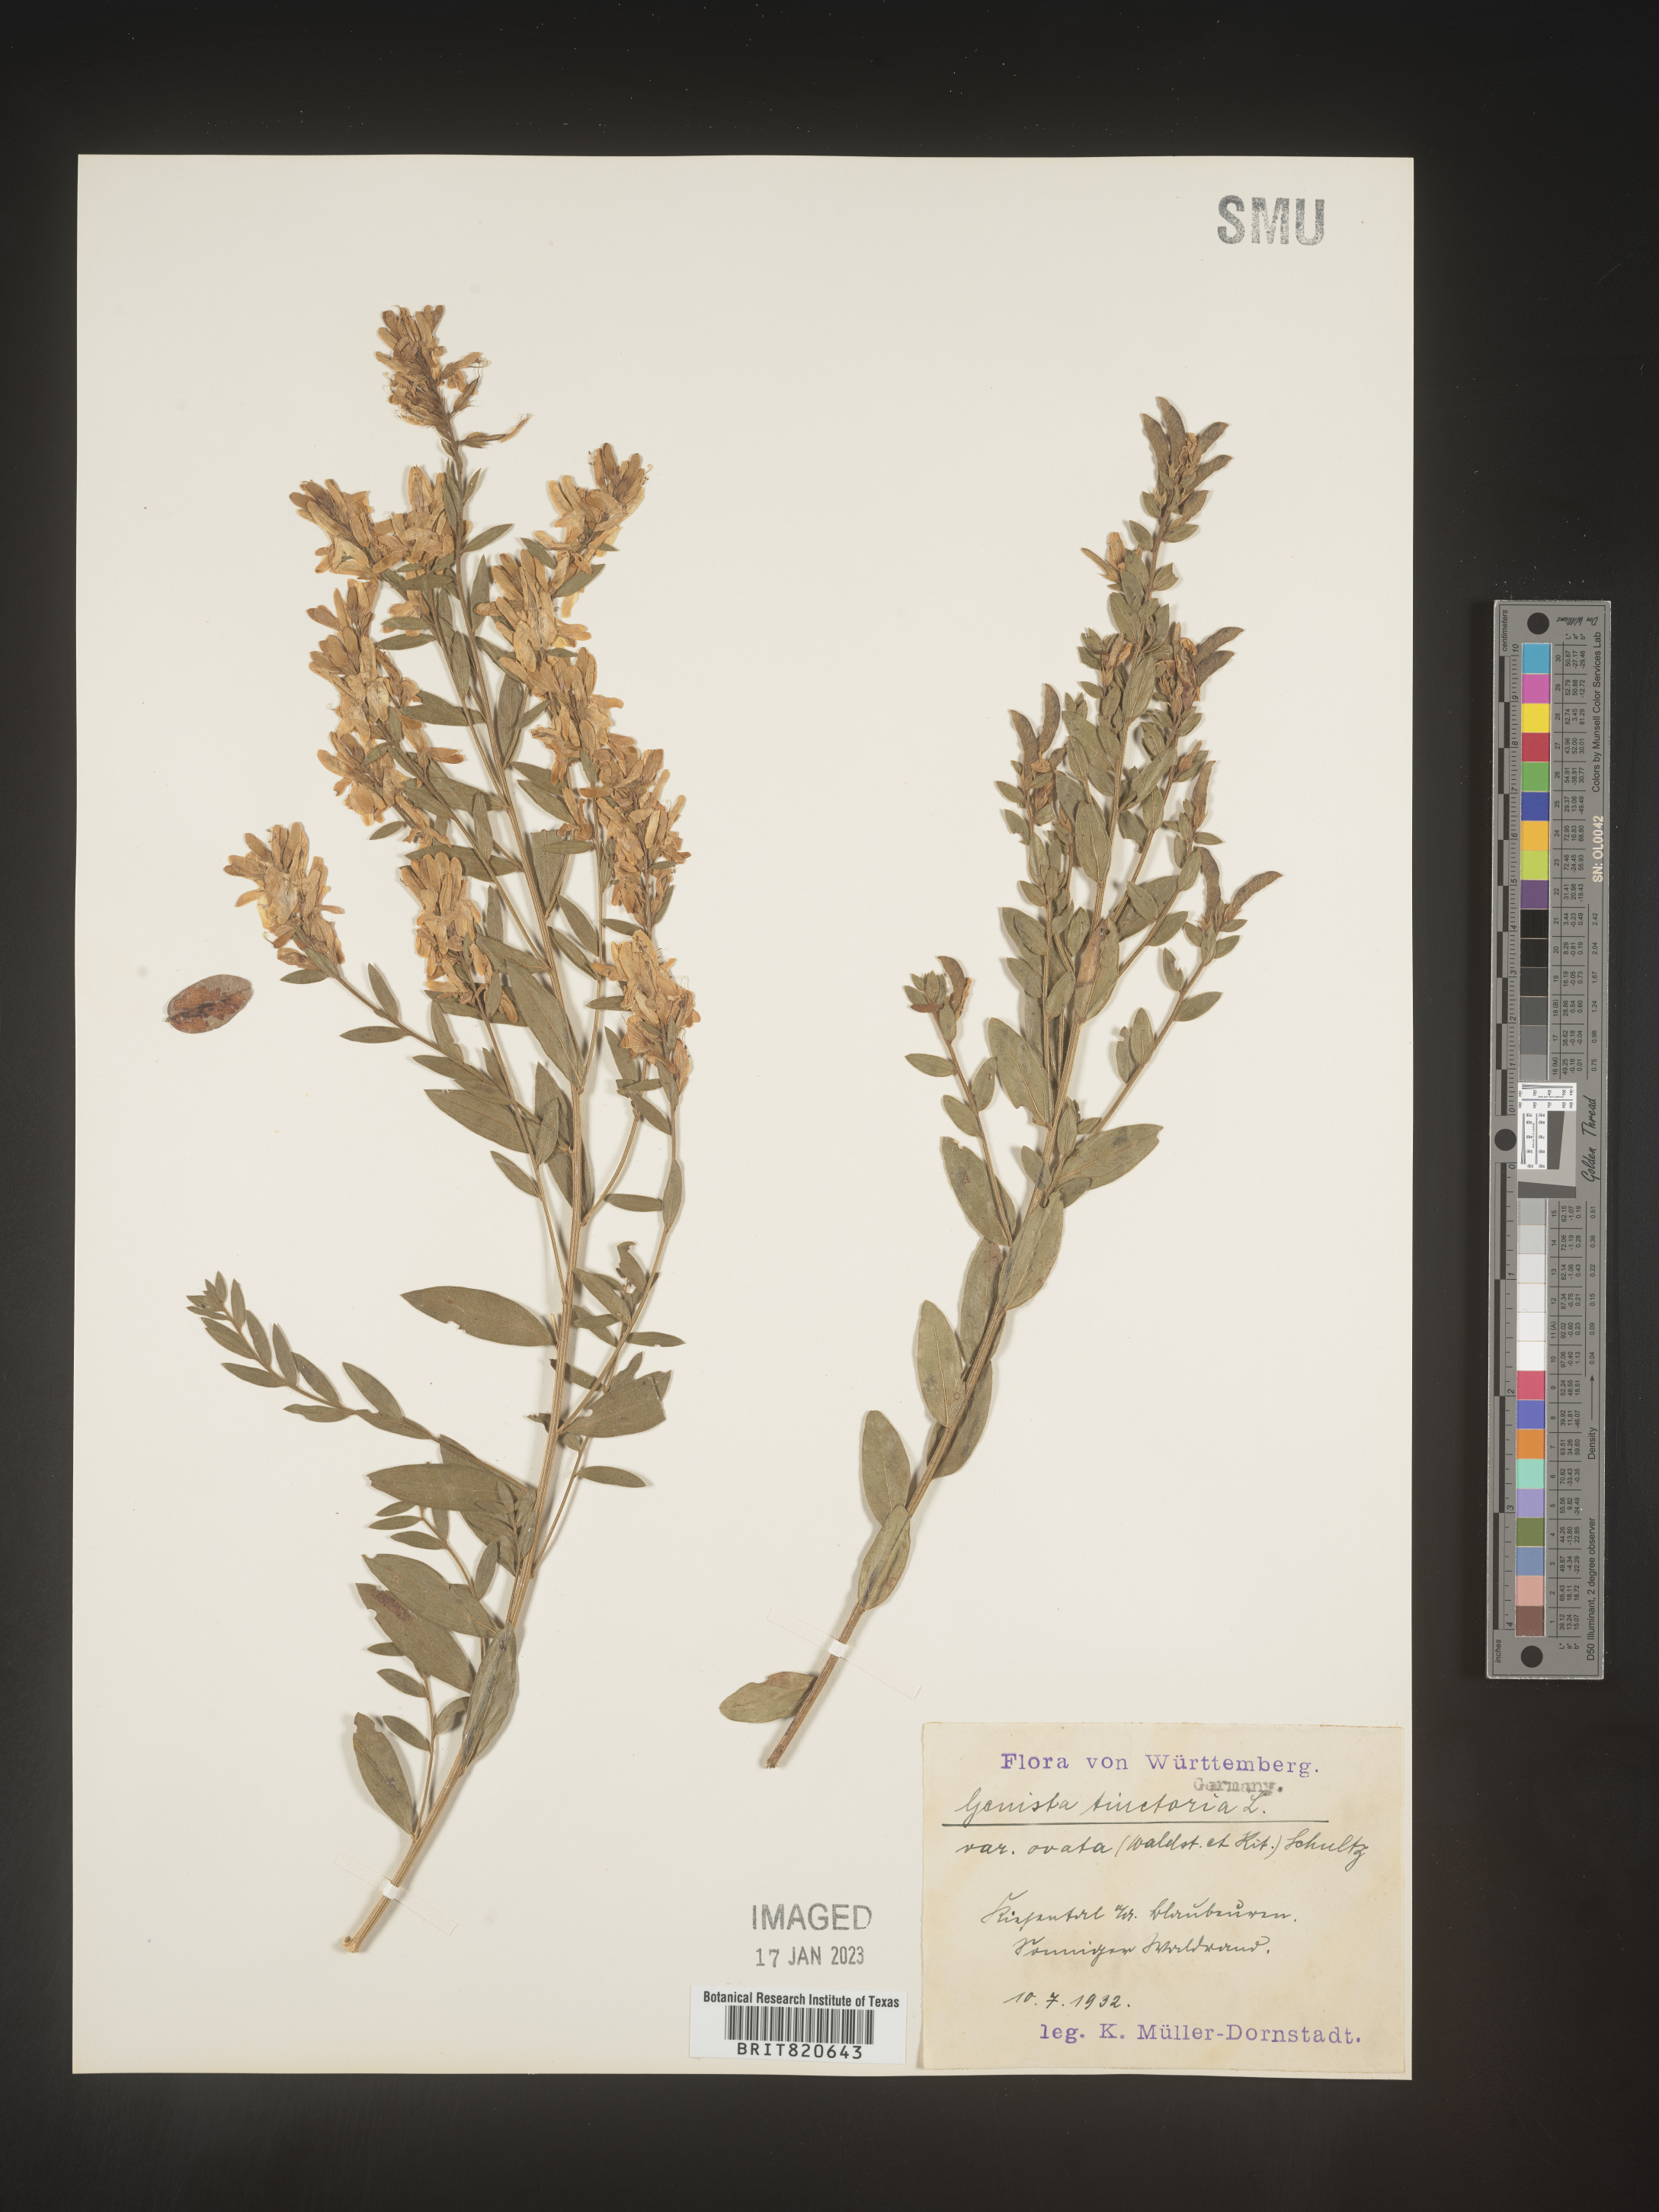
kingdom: Plantae
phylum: Tracheophyta
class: Magnoliopsida
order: Fabales
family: Fabaceae
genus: Genista
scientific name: Genista tinctoria
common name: Dyer's greenweed
